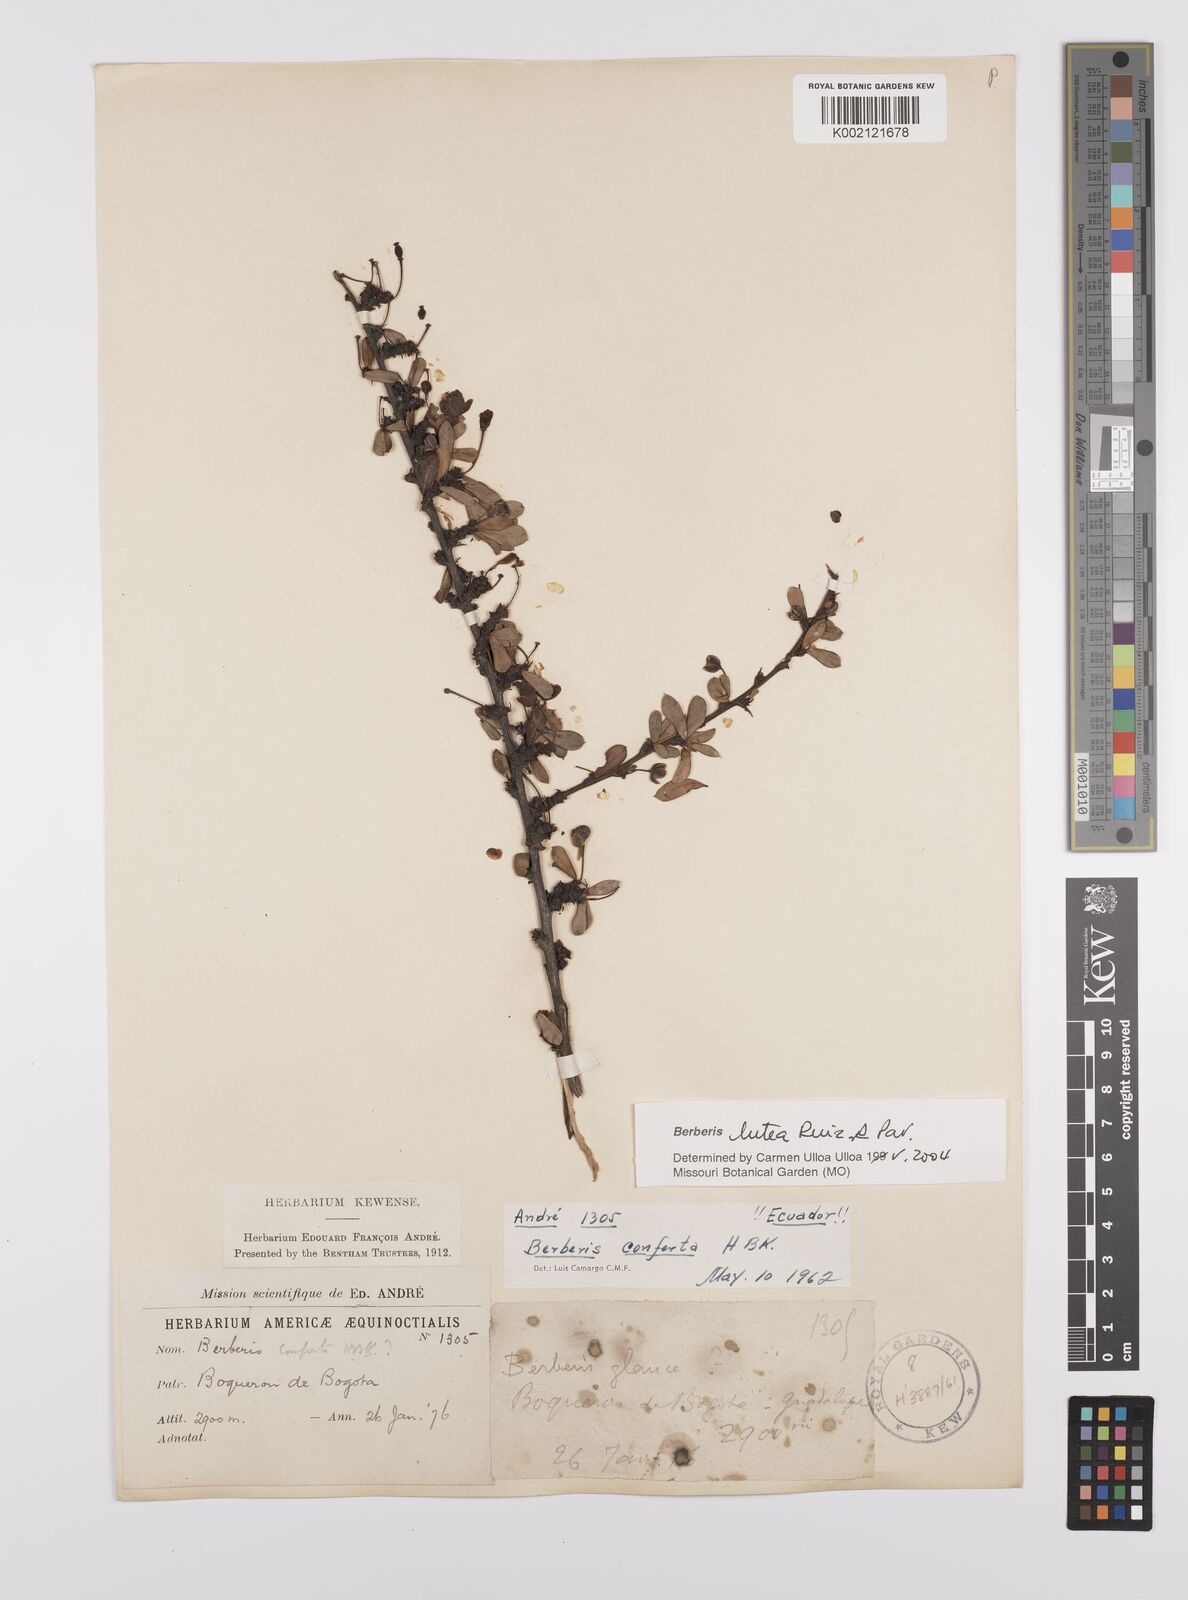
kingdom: Plantae
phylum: Tracheophyta
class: Magnoliopsida
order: Ranunculales
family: Berberidaceae
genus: Berberis
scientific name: Berberis lutea
